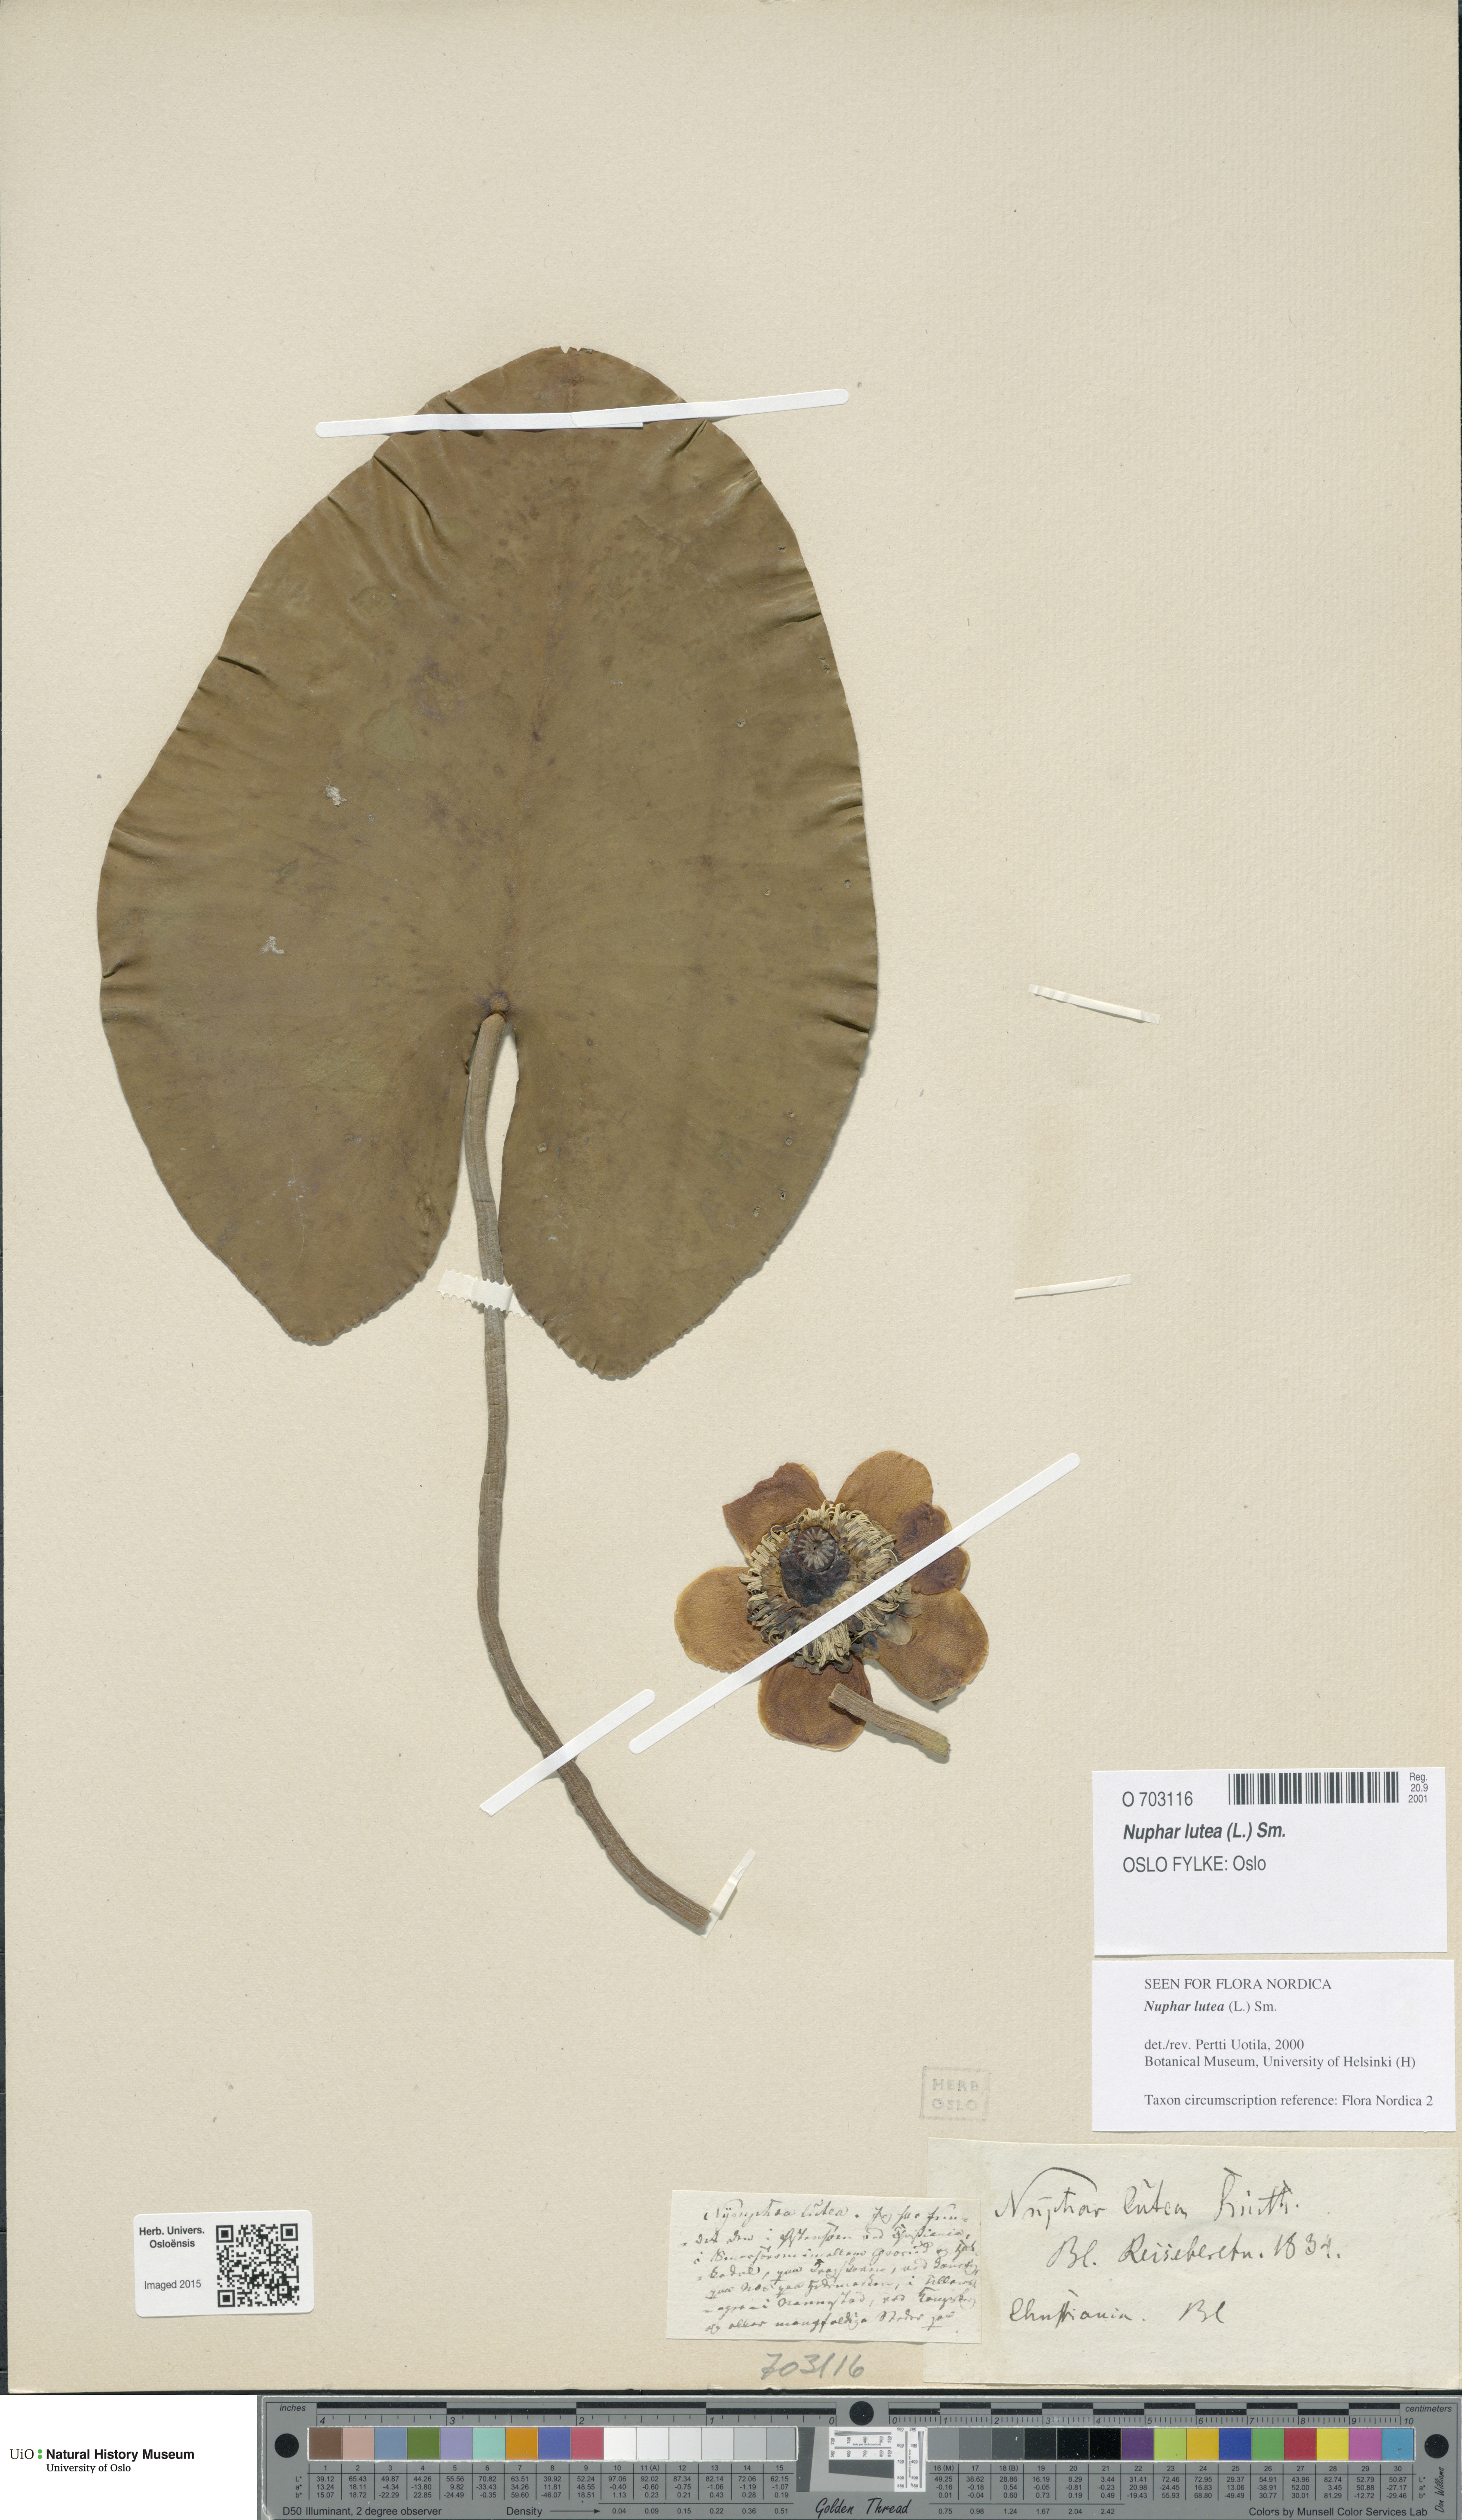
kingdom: Plantae
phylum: Tracheophyta
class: Magnoliopsida
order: Nymphaeales
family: Nymphaeaceae
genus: Nuphar
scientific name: Nuphar lutea
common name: Yellow water-lily
